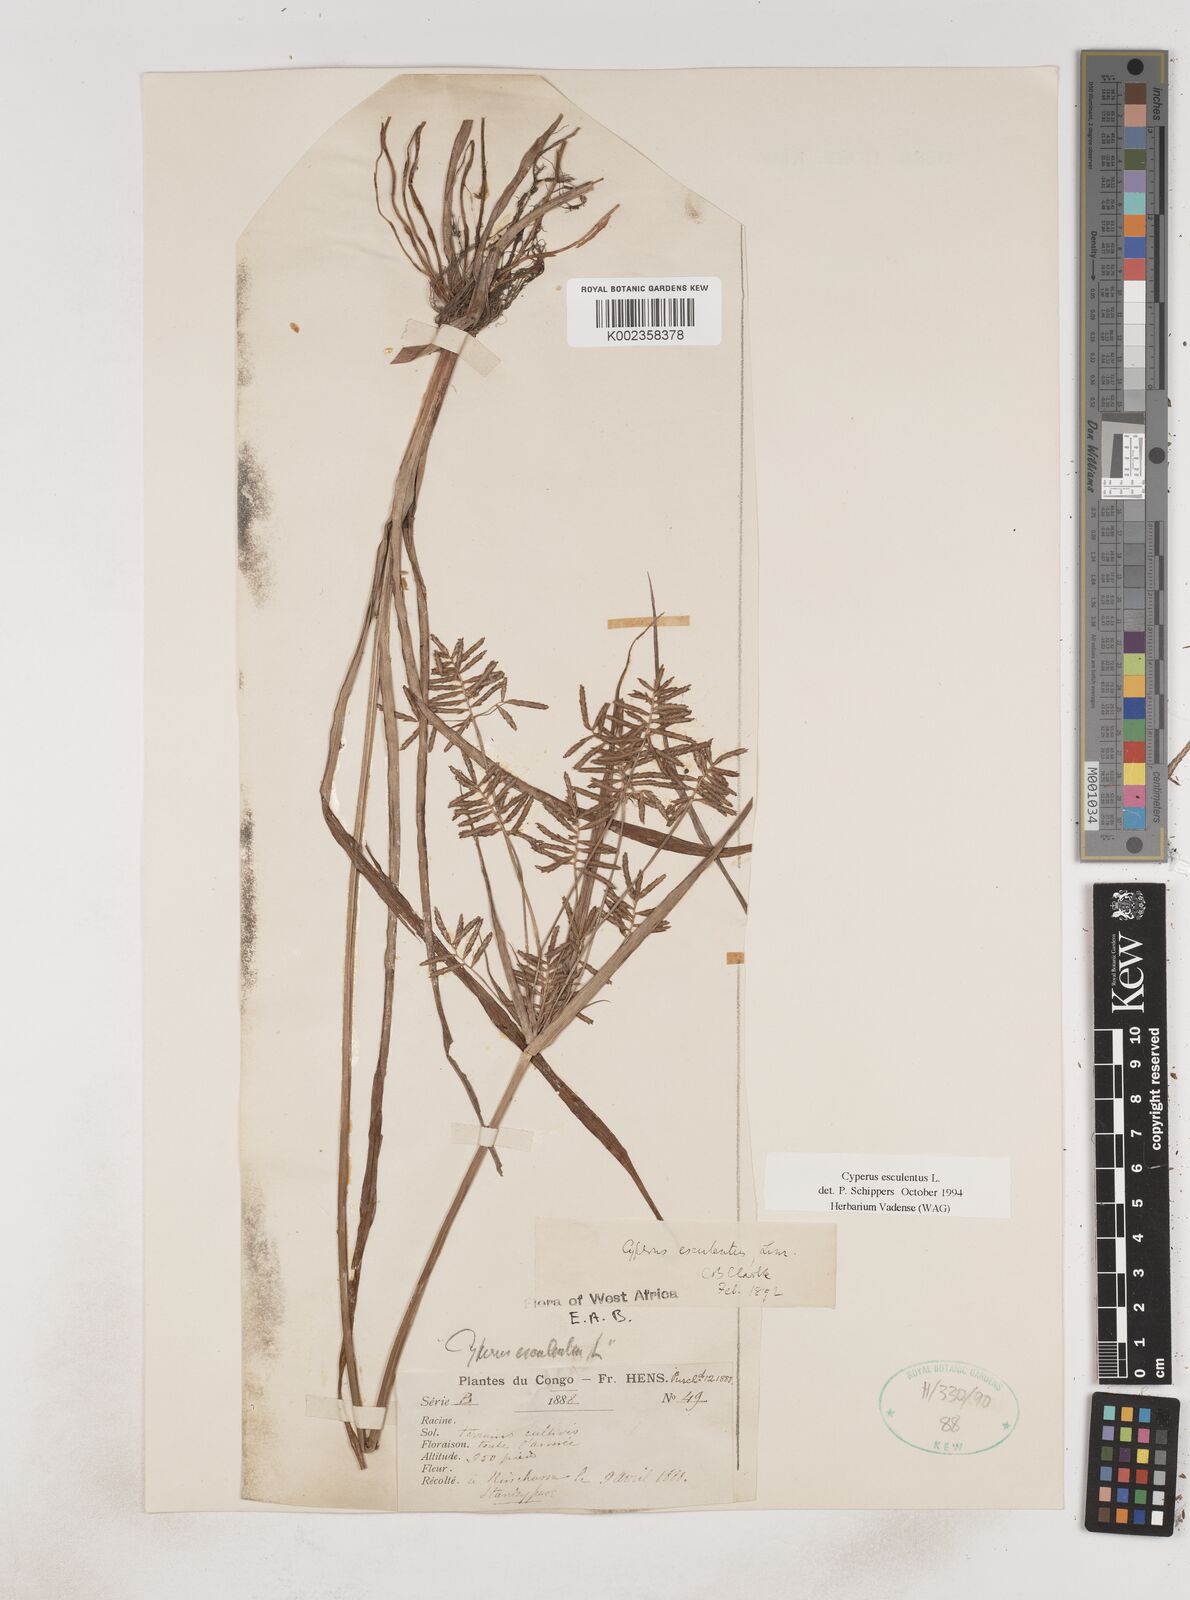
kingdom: Plantae
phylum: Tracheophyta
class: Liliopsida
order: Poales
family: Cyperaceae
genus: Cyperus
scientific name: Cyperus esculentus
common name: Yellow nutsedge
